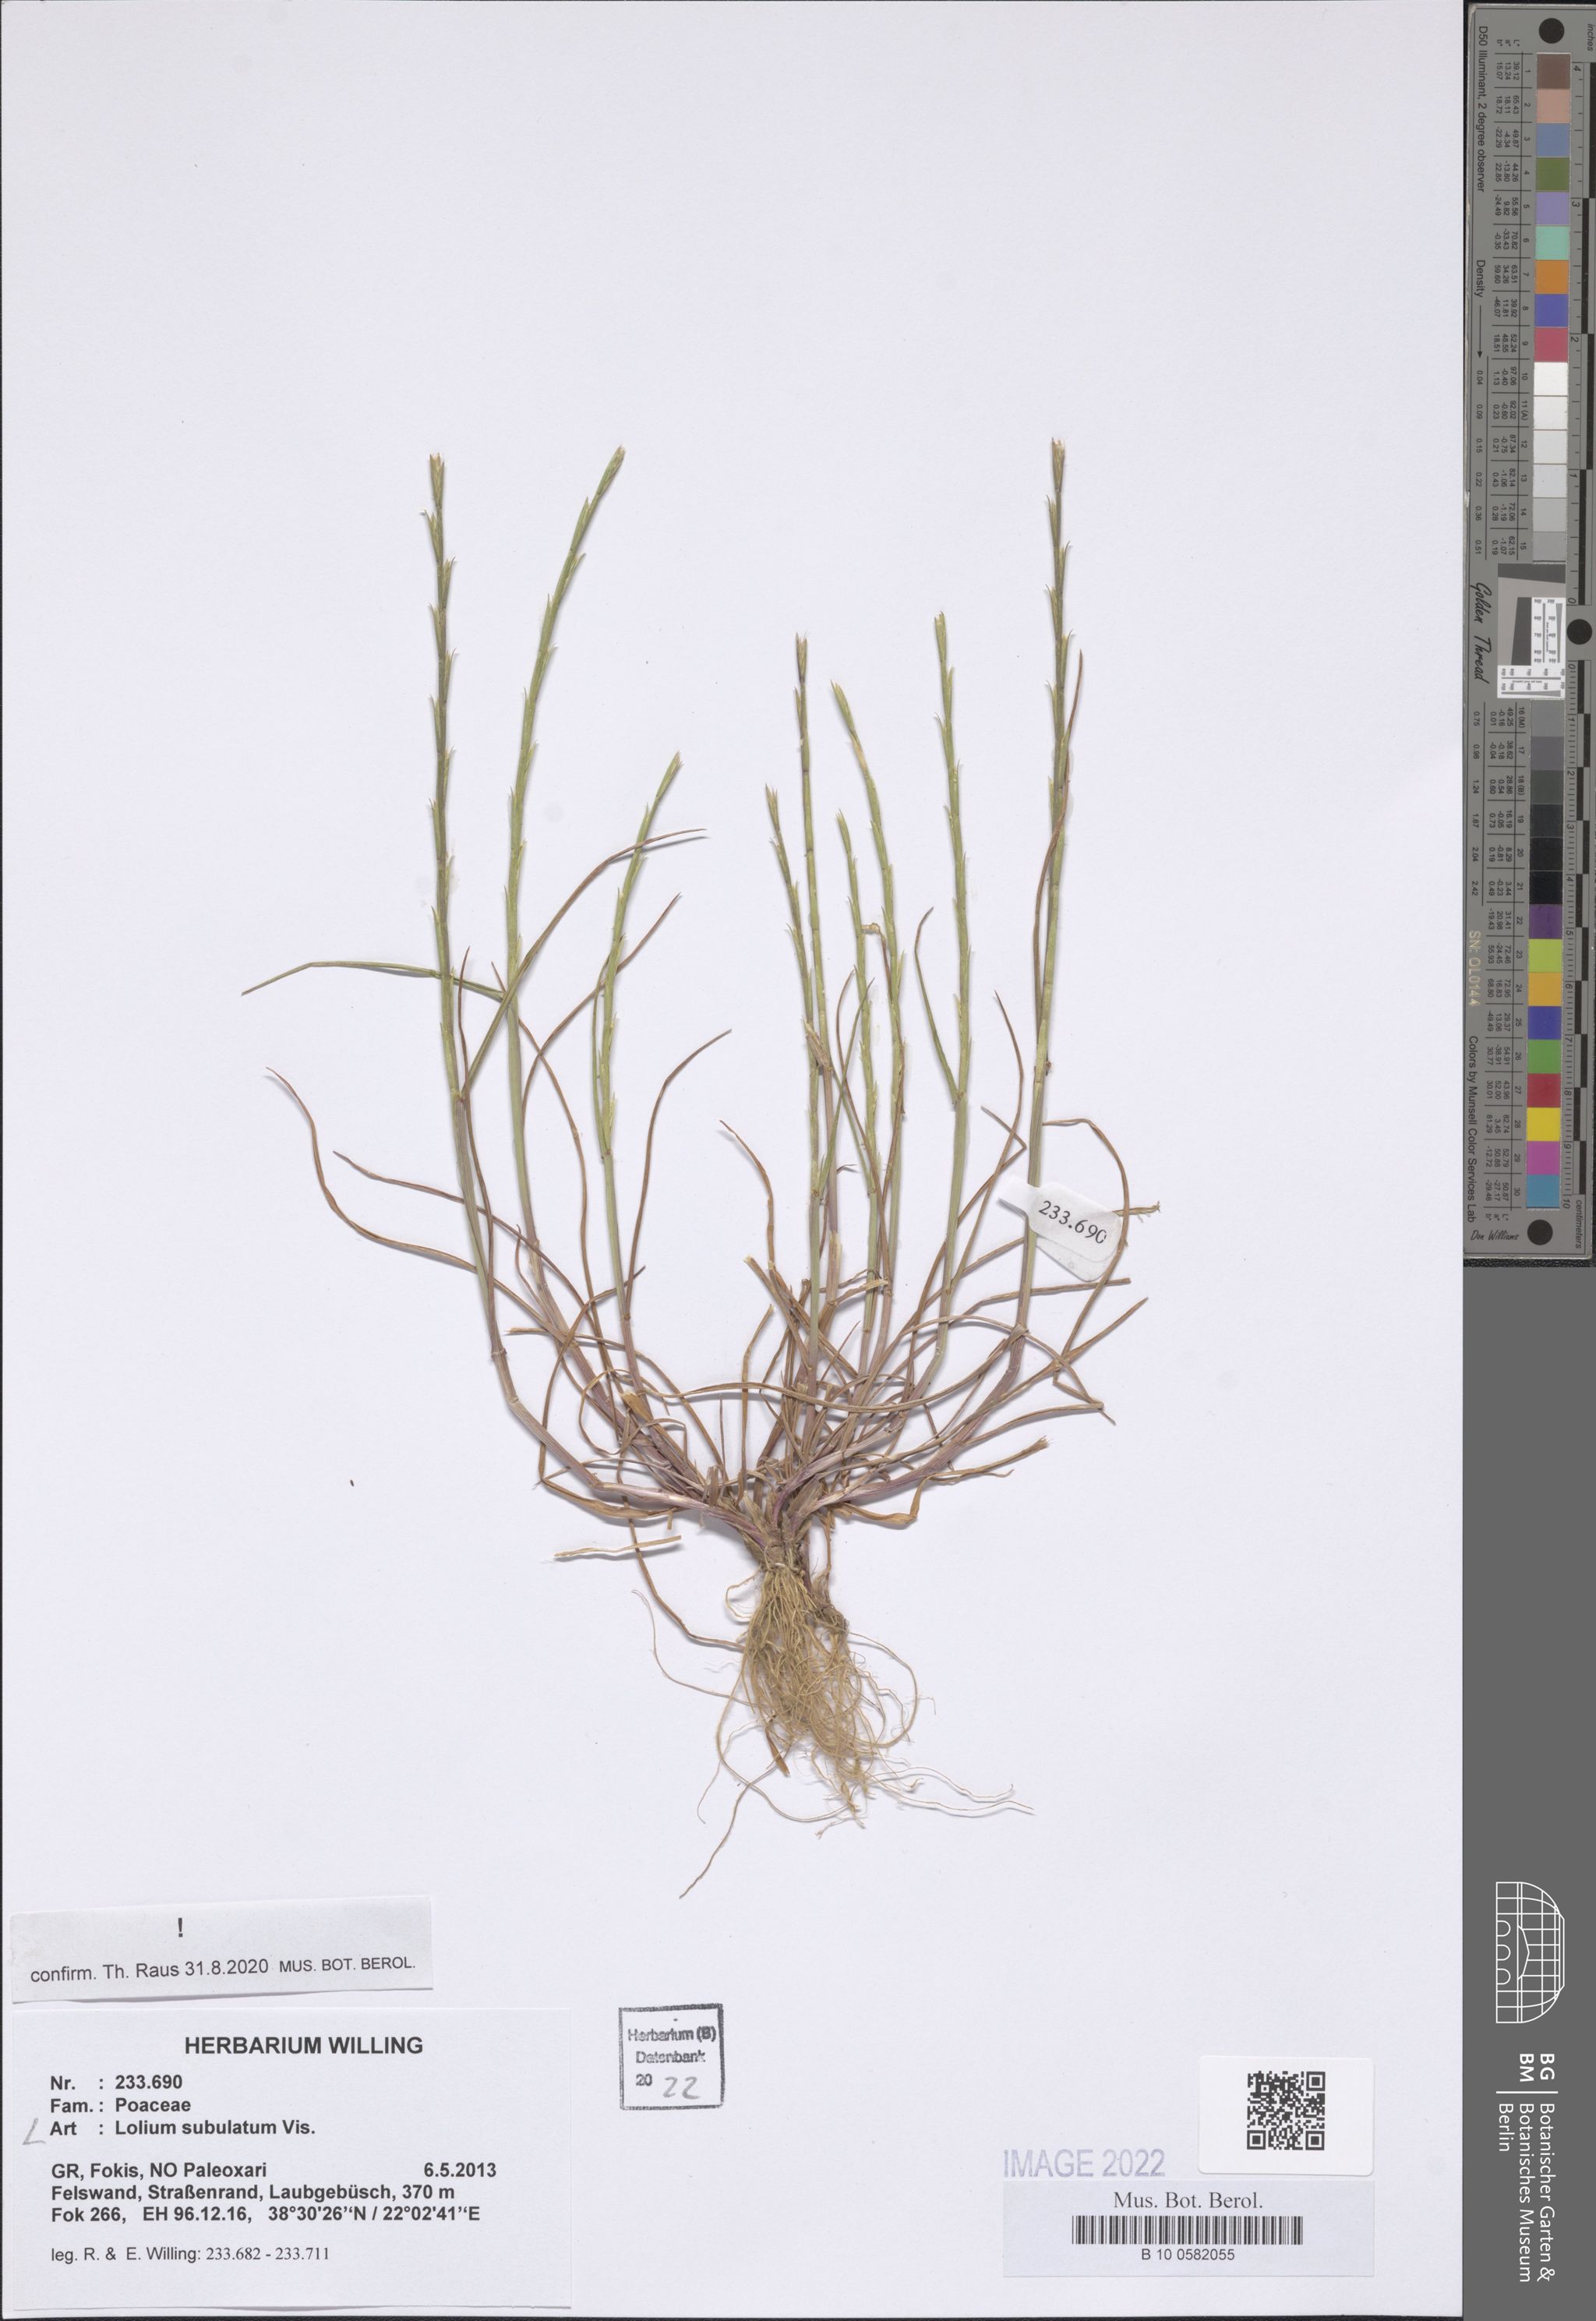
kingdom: Plantae
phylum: Tracheophyta
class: Liliopsida
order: Poales
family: Poaceae
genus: Lolium
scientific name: Lolium subulatum
